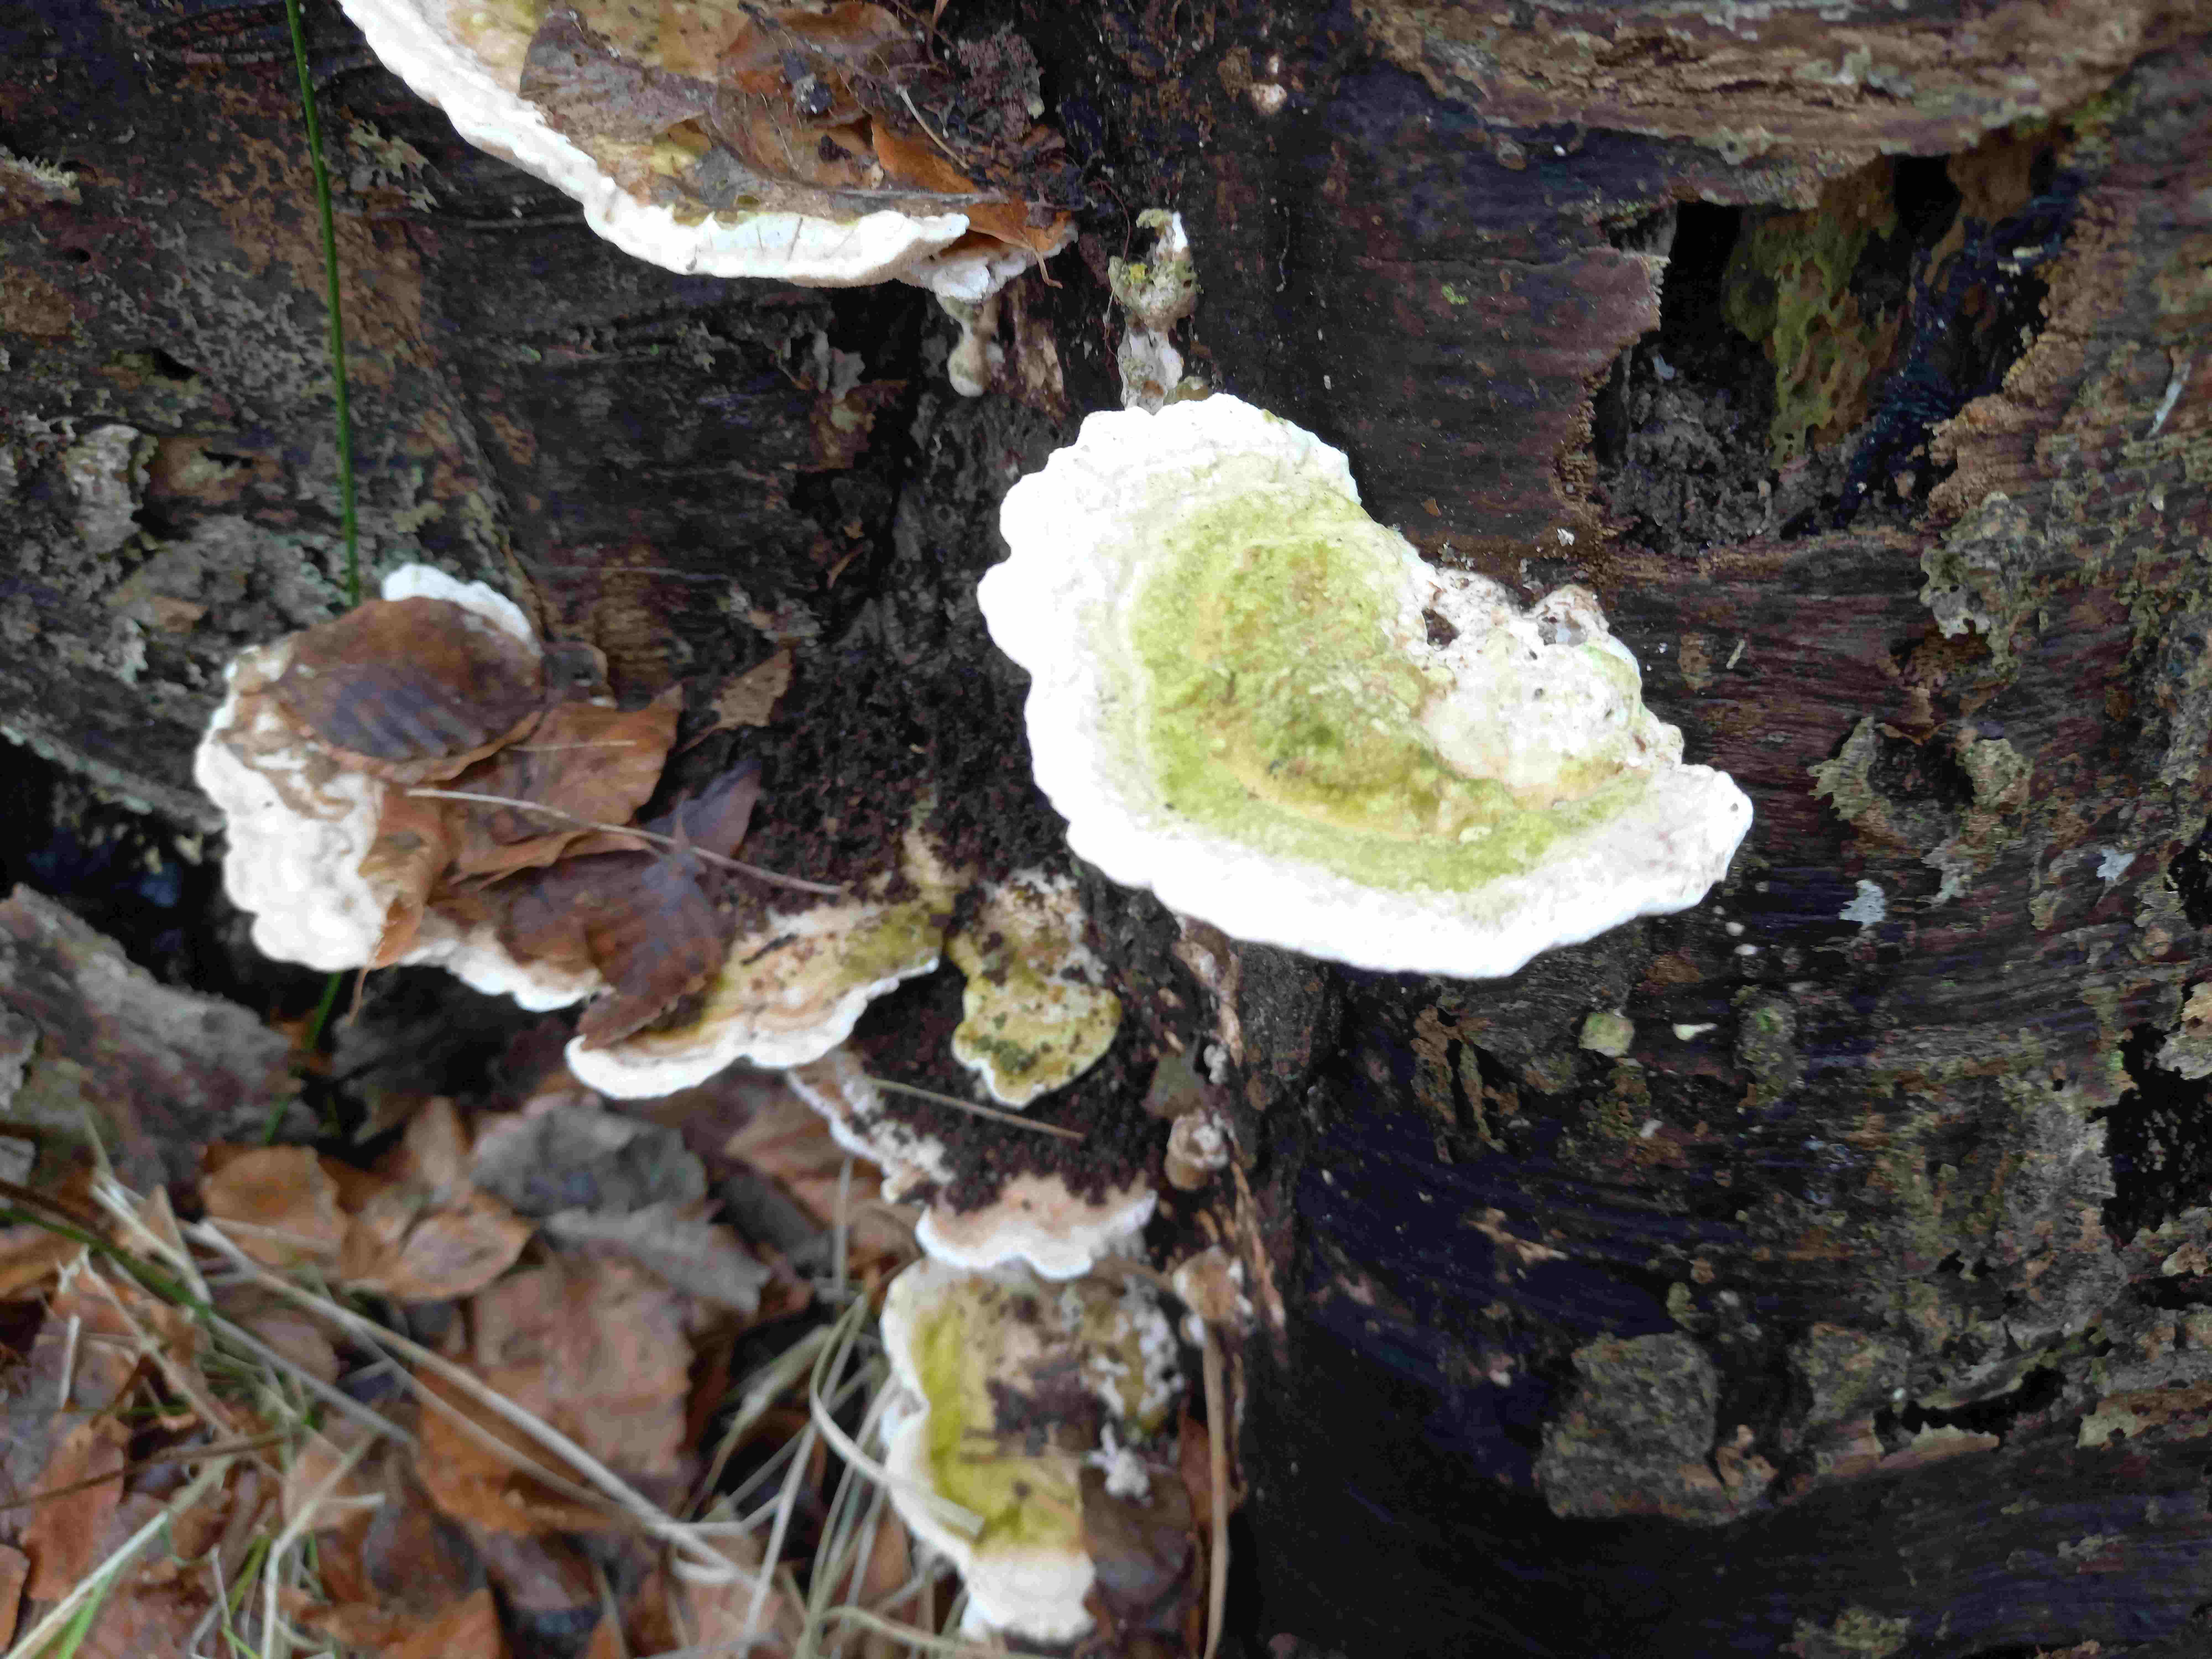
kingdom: Fungi
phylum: Basidiomycota
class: Agaricomycetes
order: Polyporales
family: Polyporaceae
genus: Trametes
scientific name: Trametes
